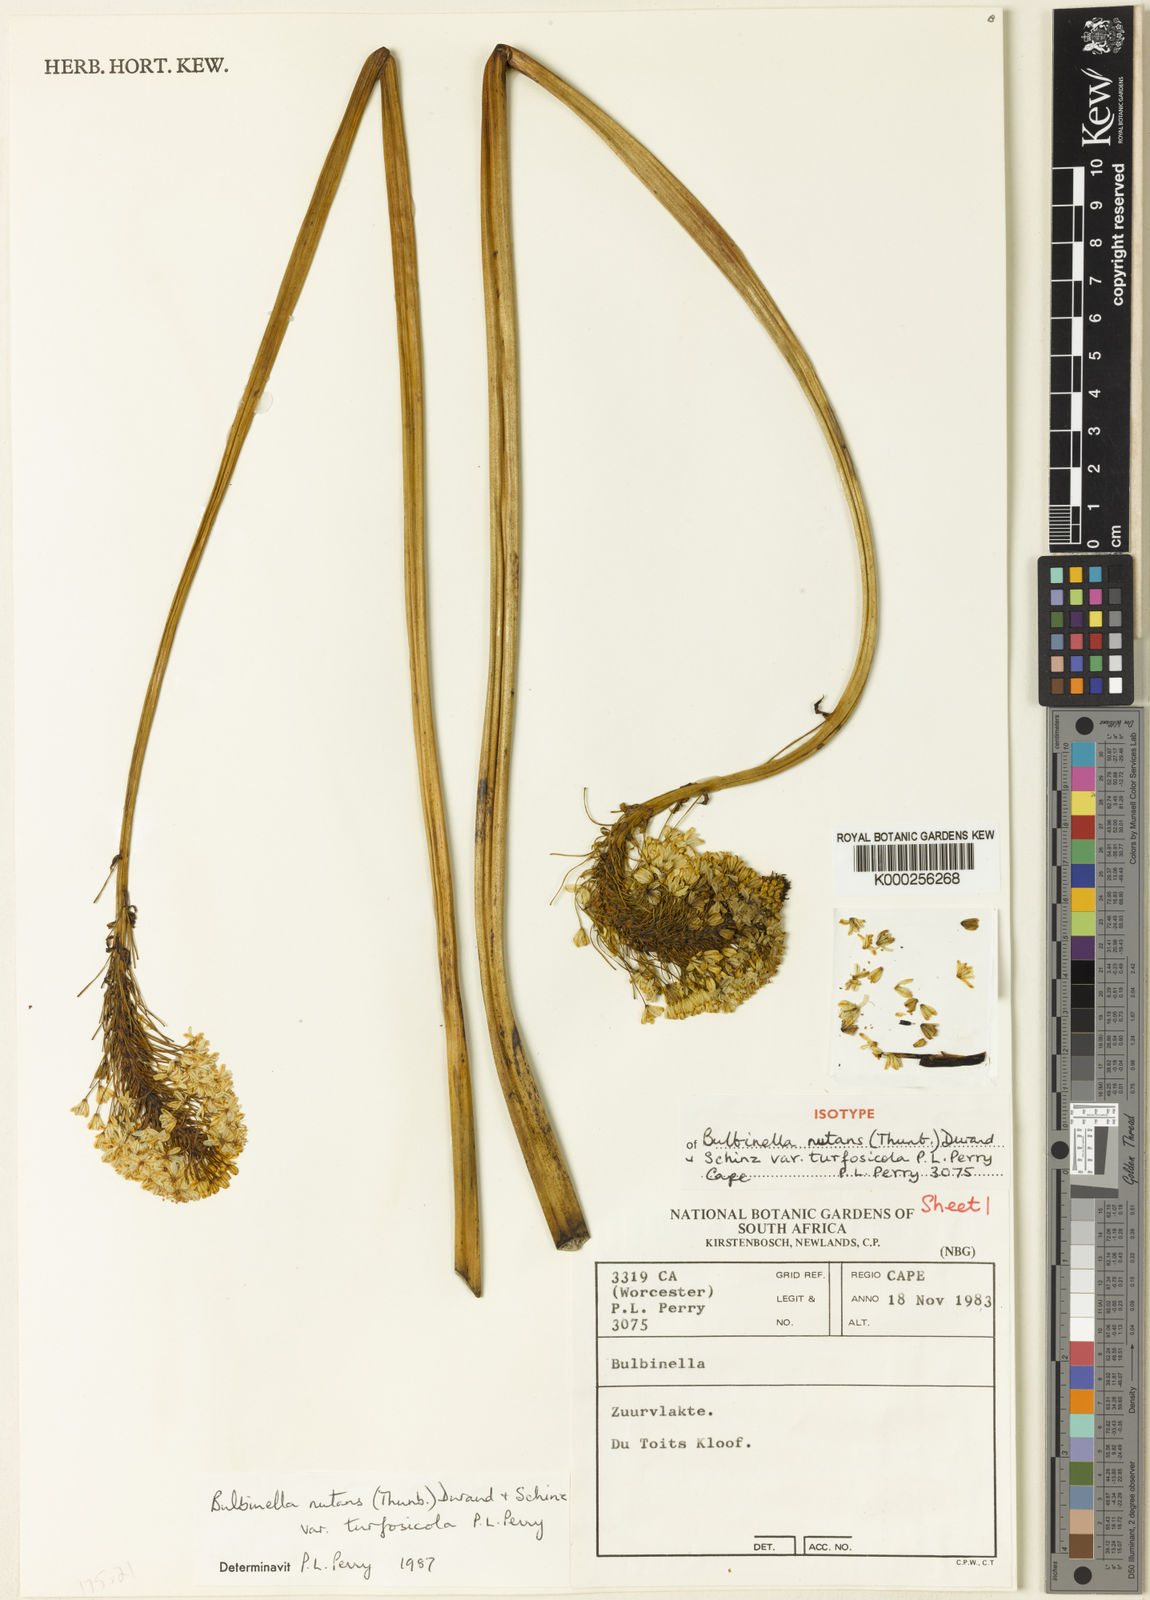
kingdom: Plantae
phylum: Tracheophyta
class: Liliopsida
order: Asparagales
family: Asphodelaceae
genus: Bulbinella
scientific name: Bulbinella nutans
